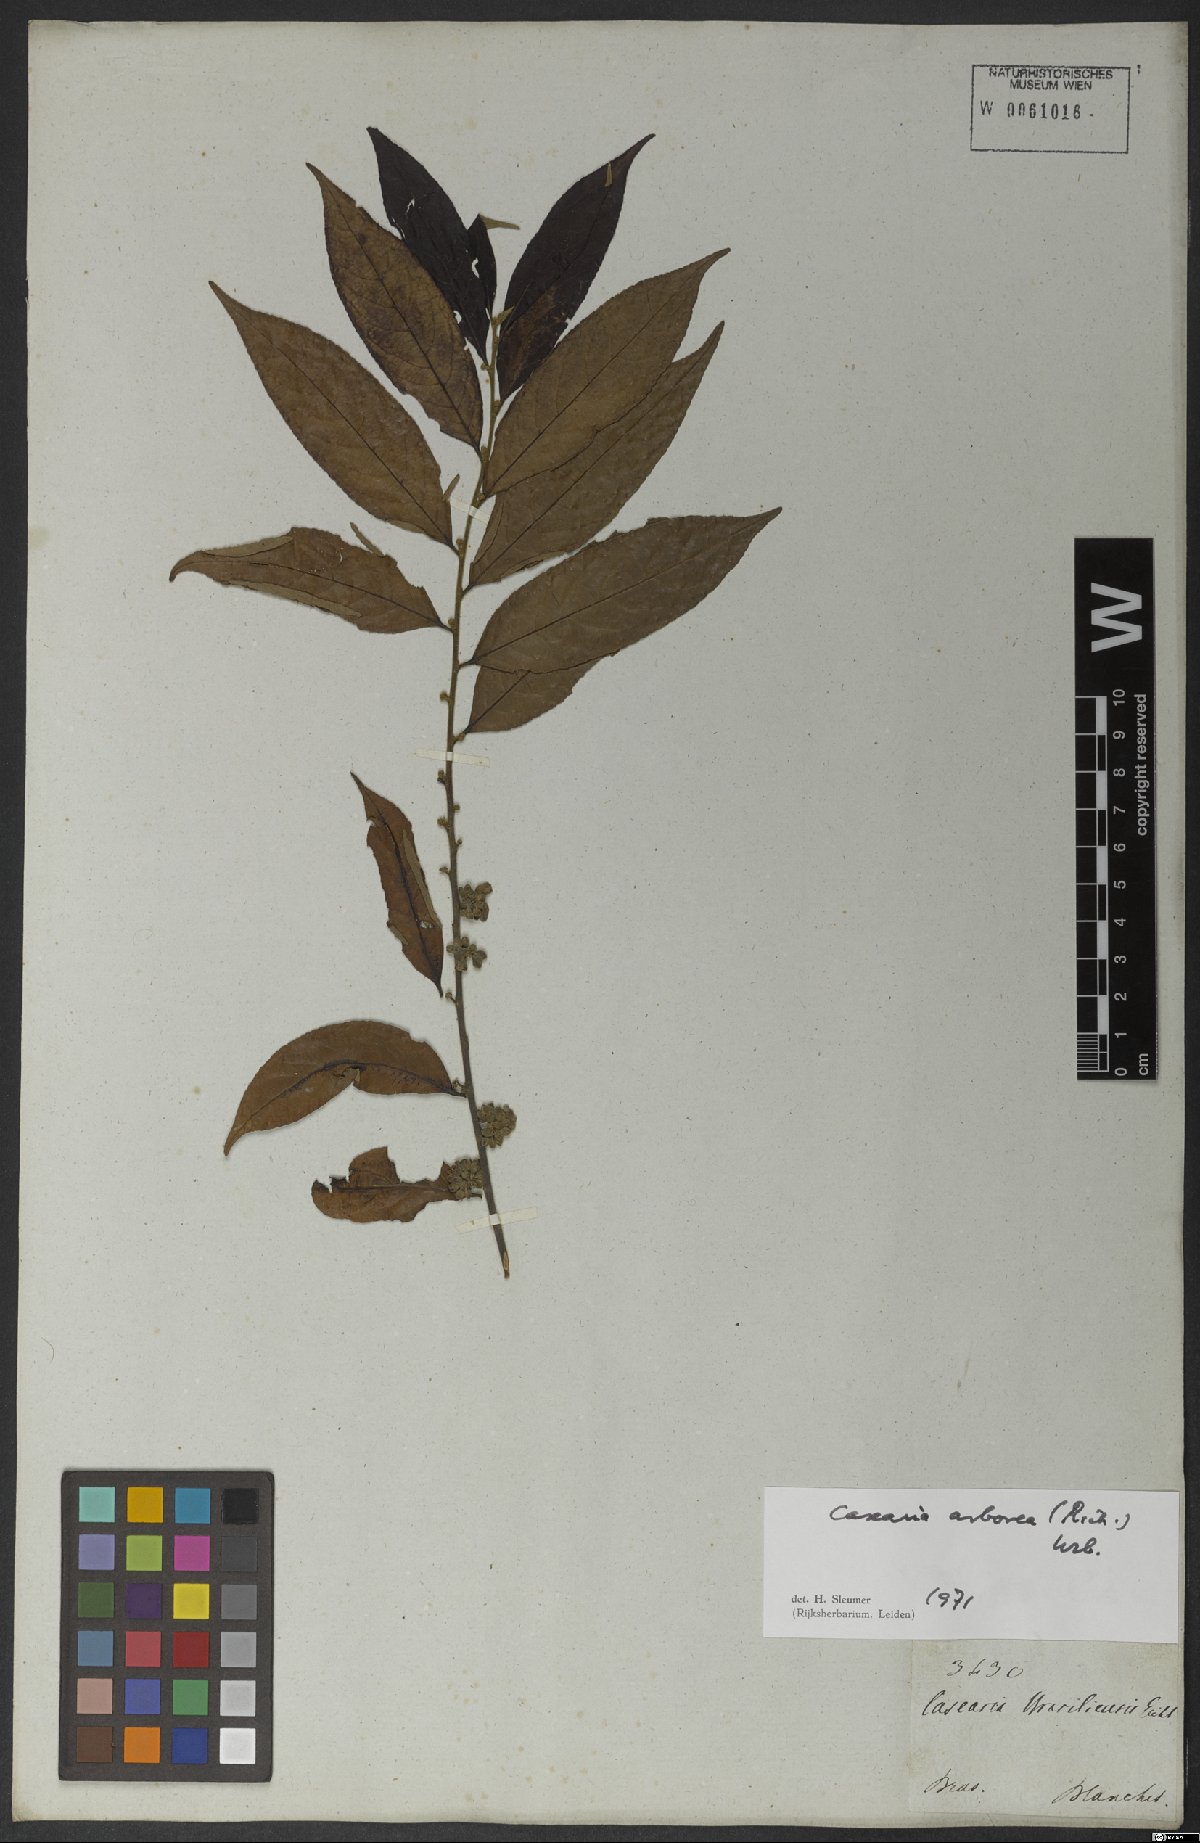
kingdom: Plantae
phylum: Tracheophyta
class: Magnoliopsida
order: Malpighiales
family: Salicaceae
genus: Casearia
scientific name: Casearia arborea
